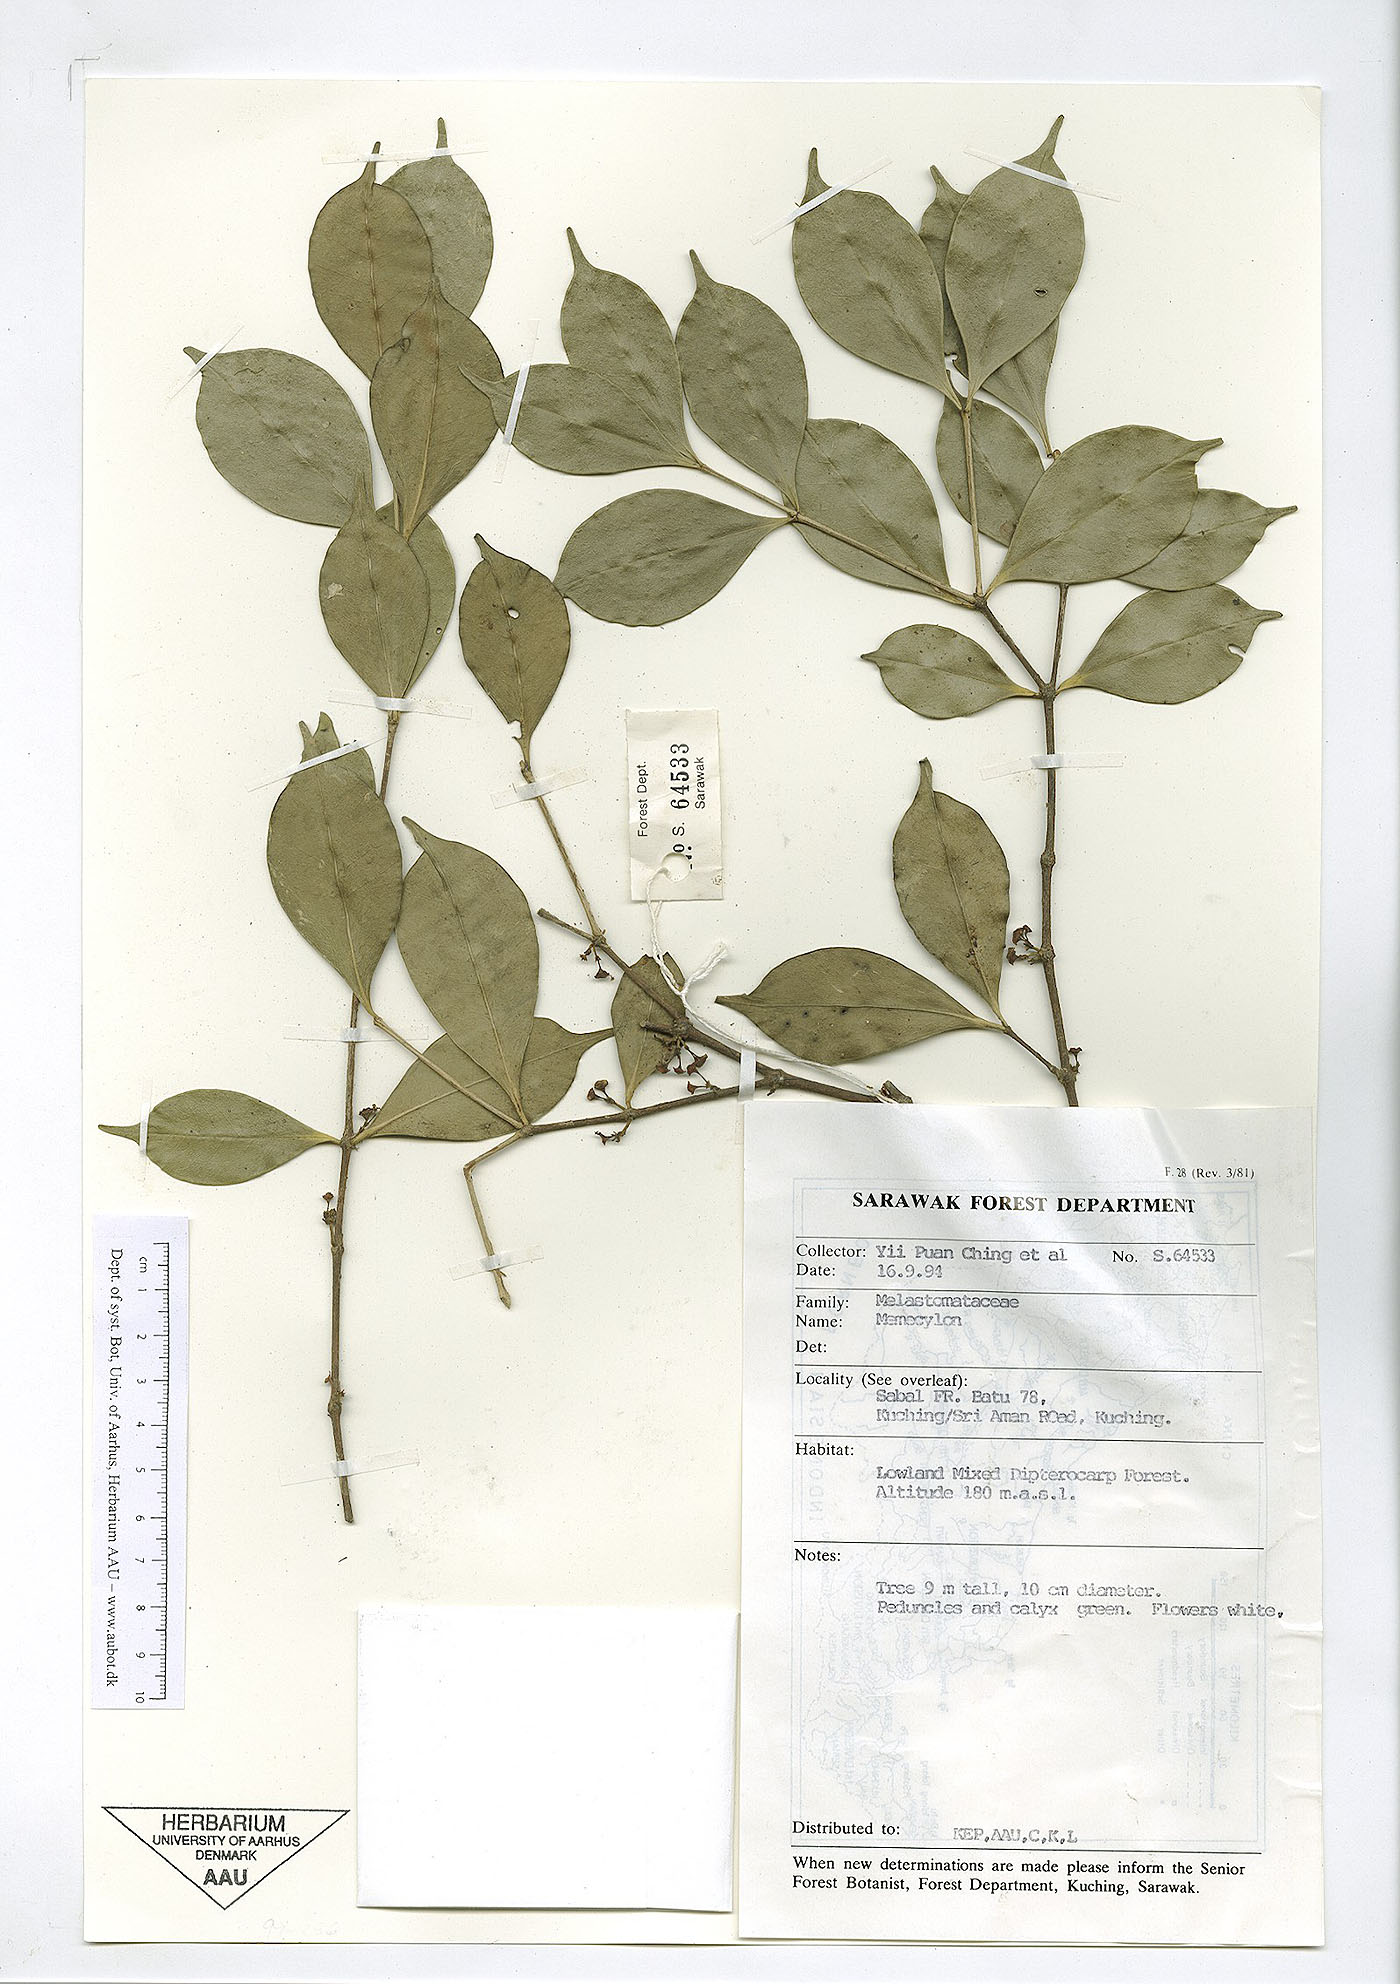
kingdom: Plantae
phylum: Tracheophyta
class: Magnoliopsida
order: Myrtales
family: Melastomataceae
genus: Memecylon
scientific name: Memecylon
